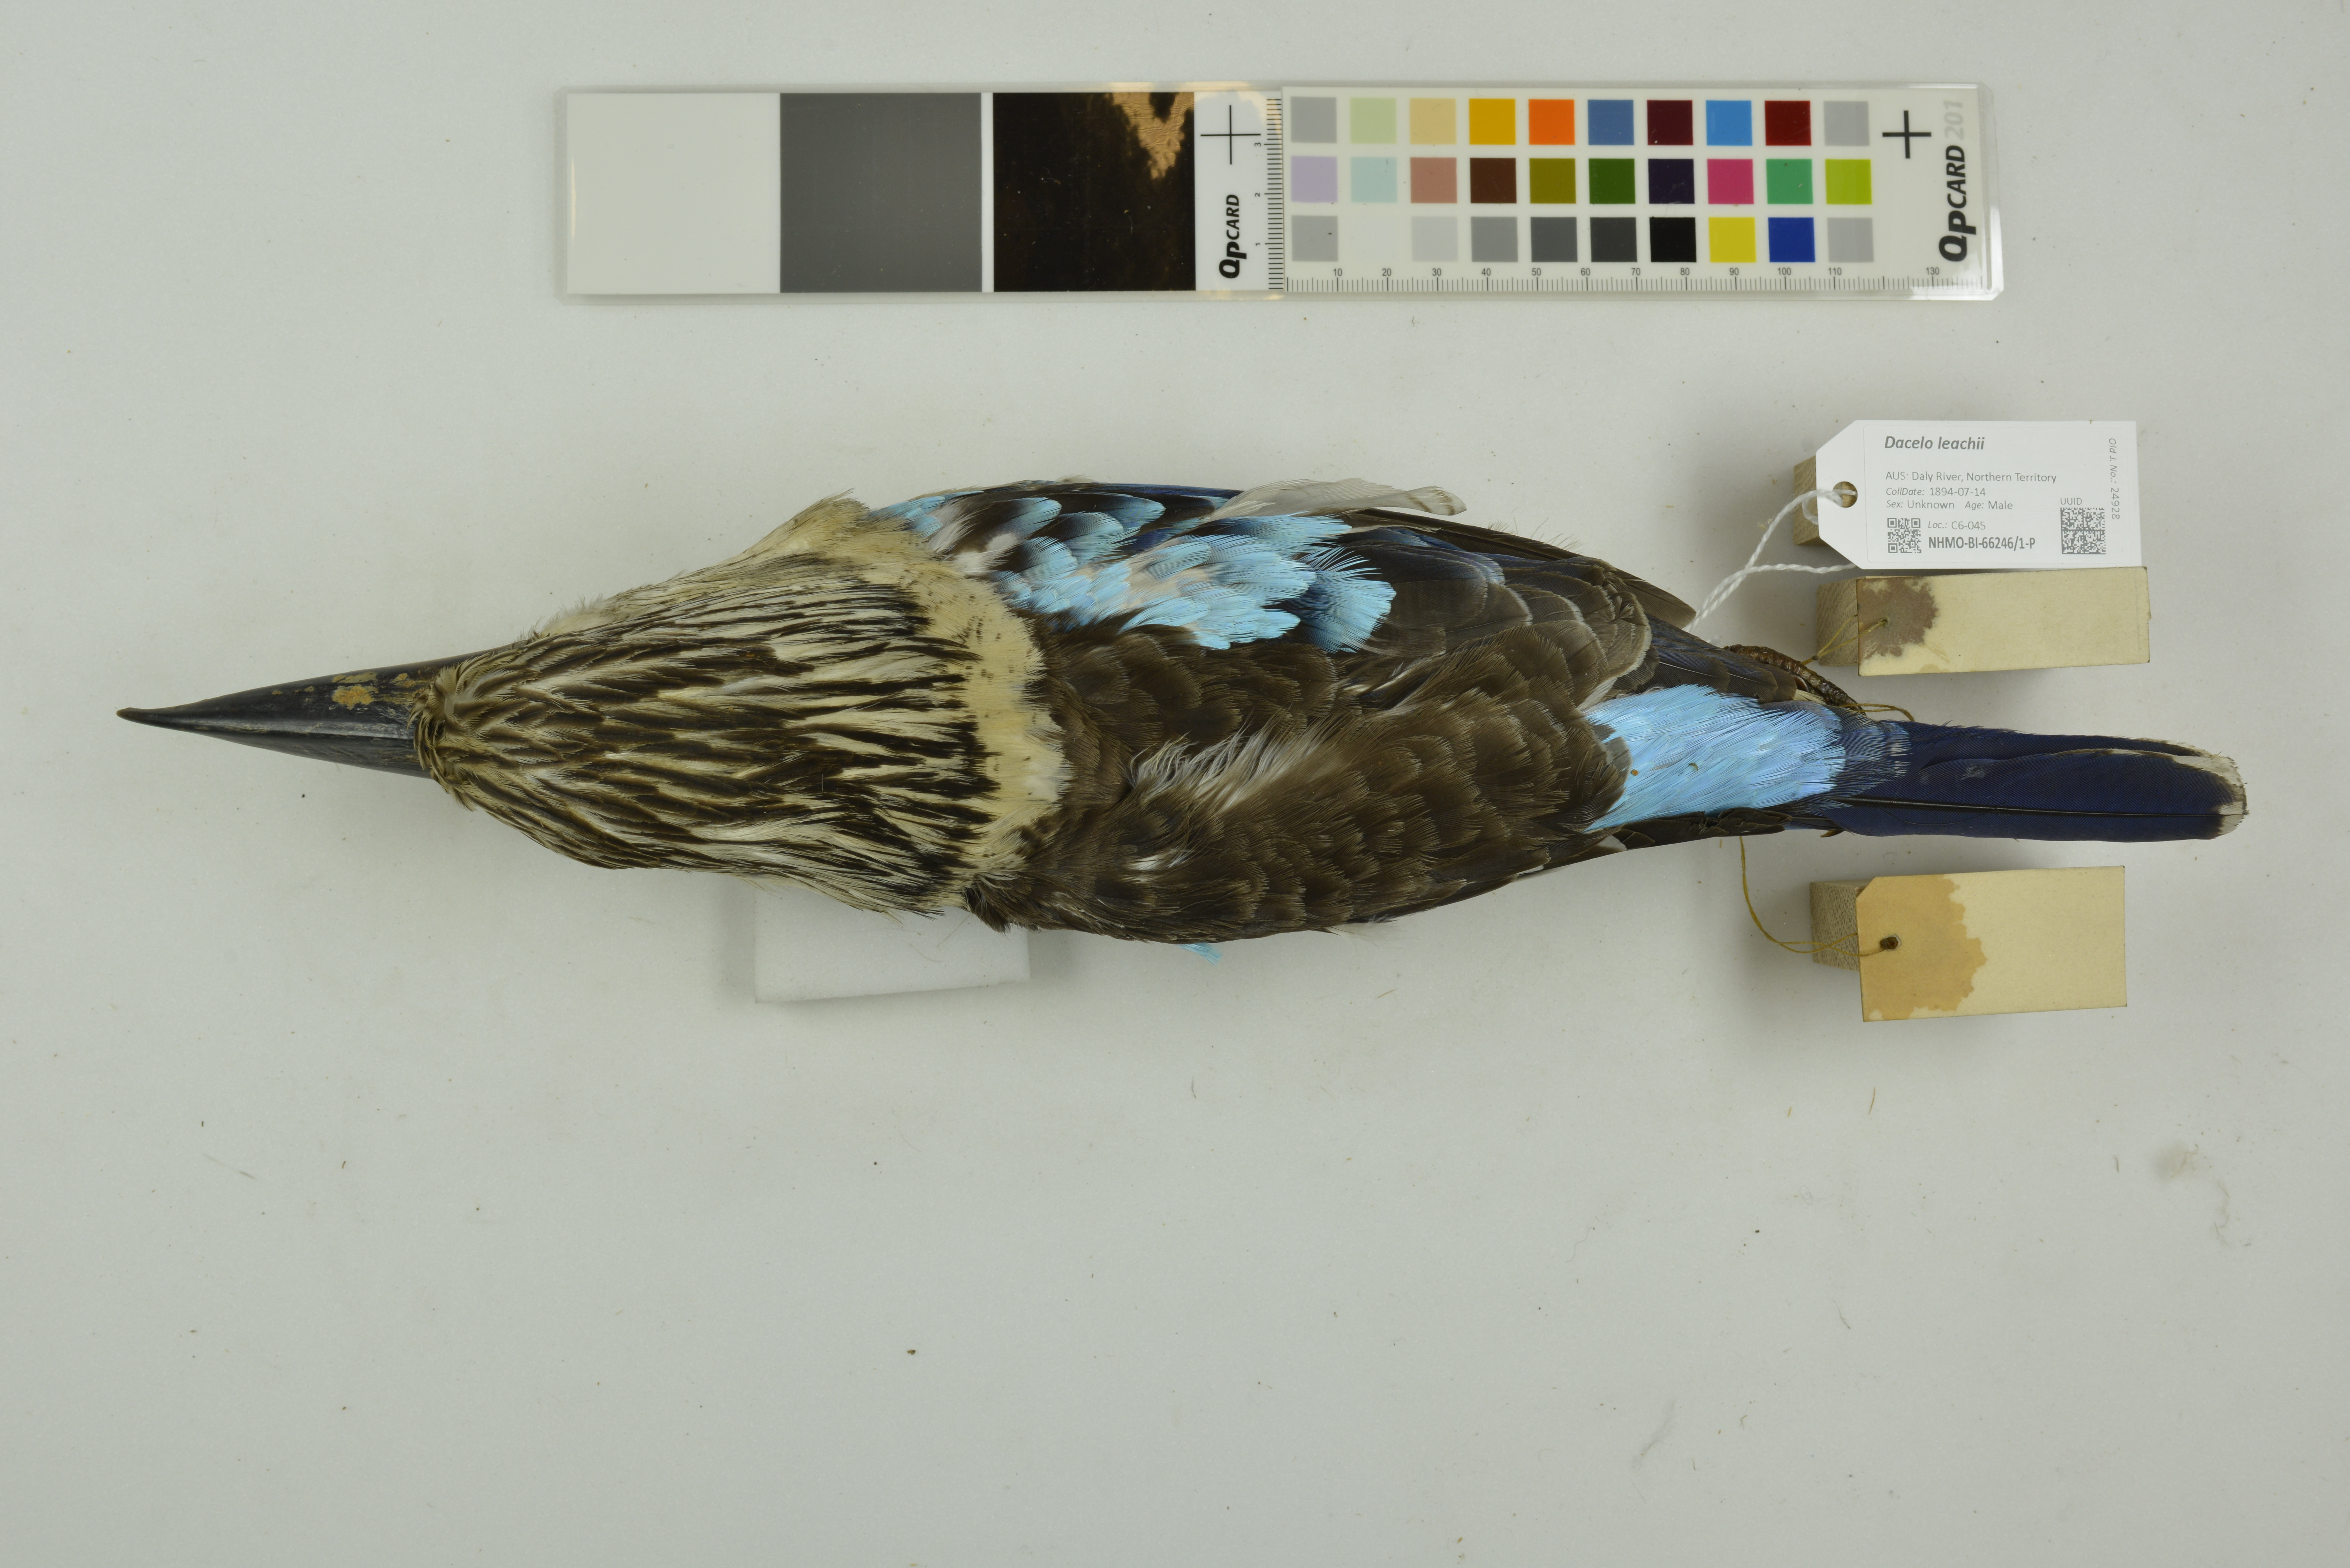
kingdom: Animalia
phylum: Chordata
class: Aves
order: Coraciiformes
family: Alcedinidae
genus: Dacelo
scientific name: Dacelo leachii
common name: Blue-winged kookaburra
